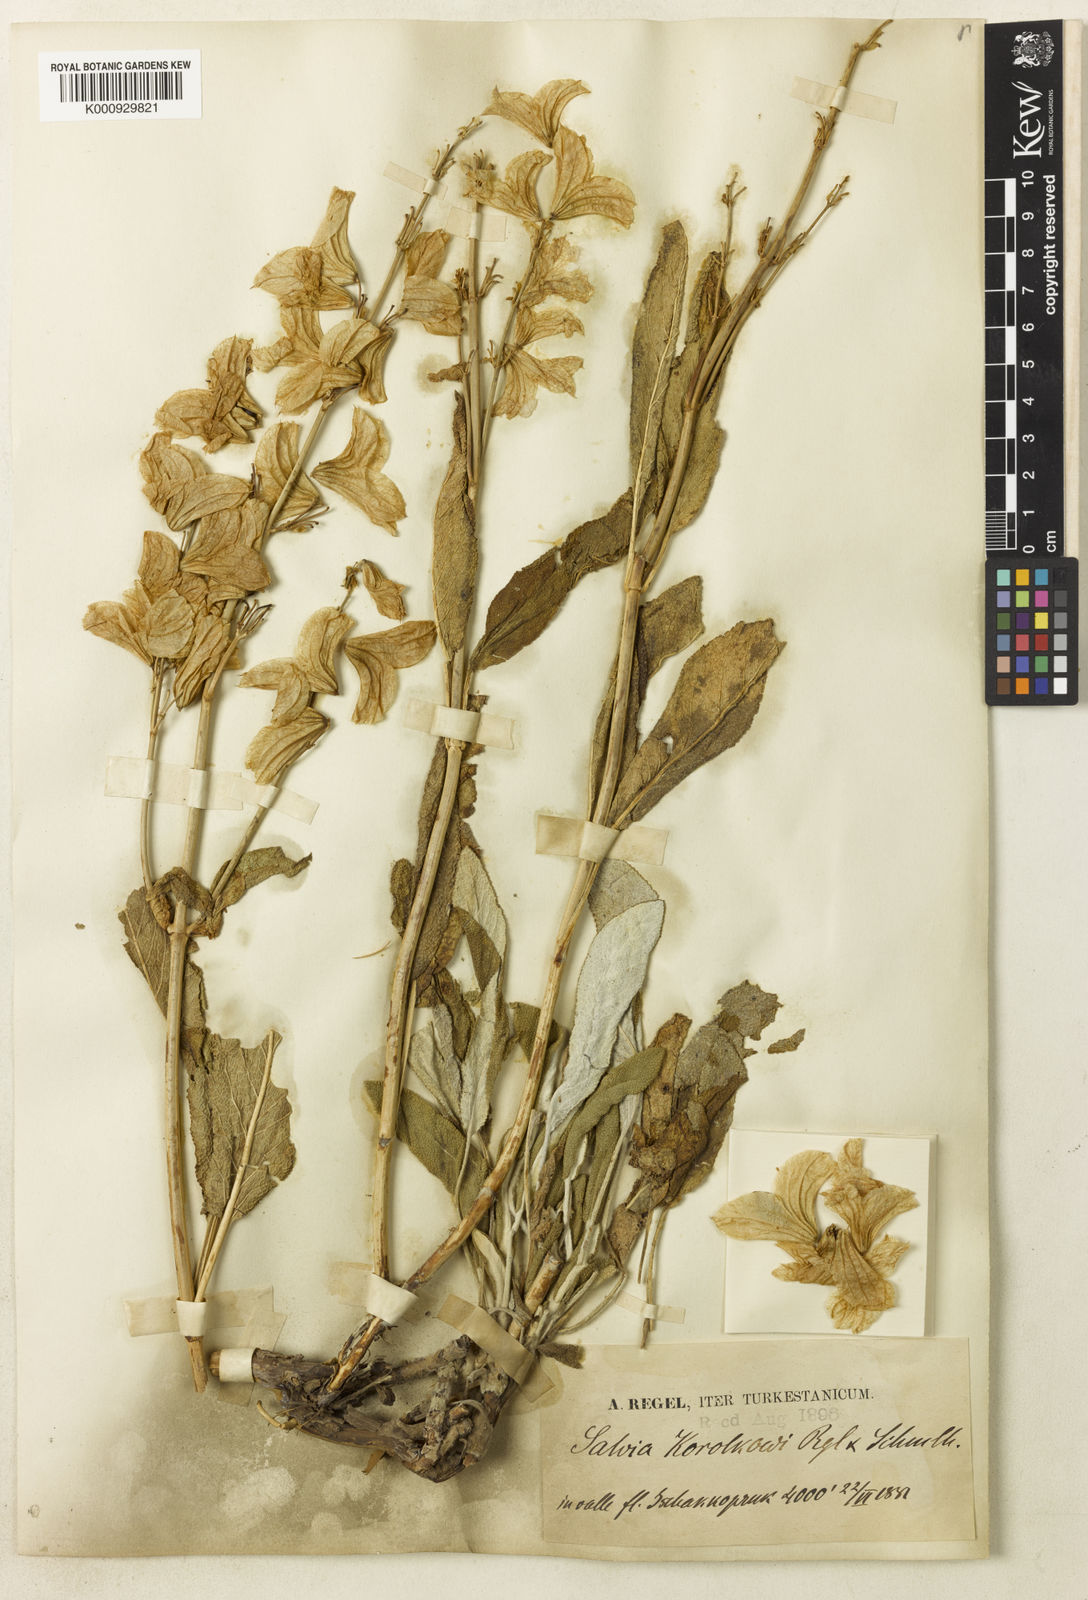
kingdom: Plantae
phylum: Tracheophyta
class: Magnoliopsida
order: Lamiales
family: Lamiaceae
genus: Salvia
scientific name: Salvia
